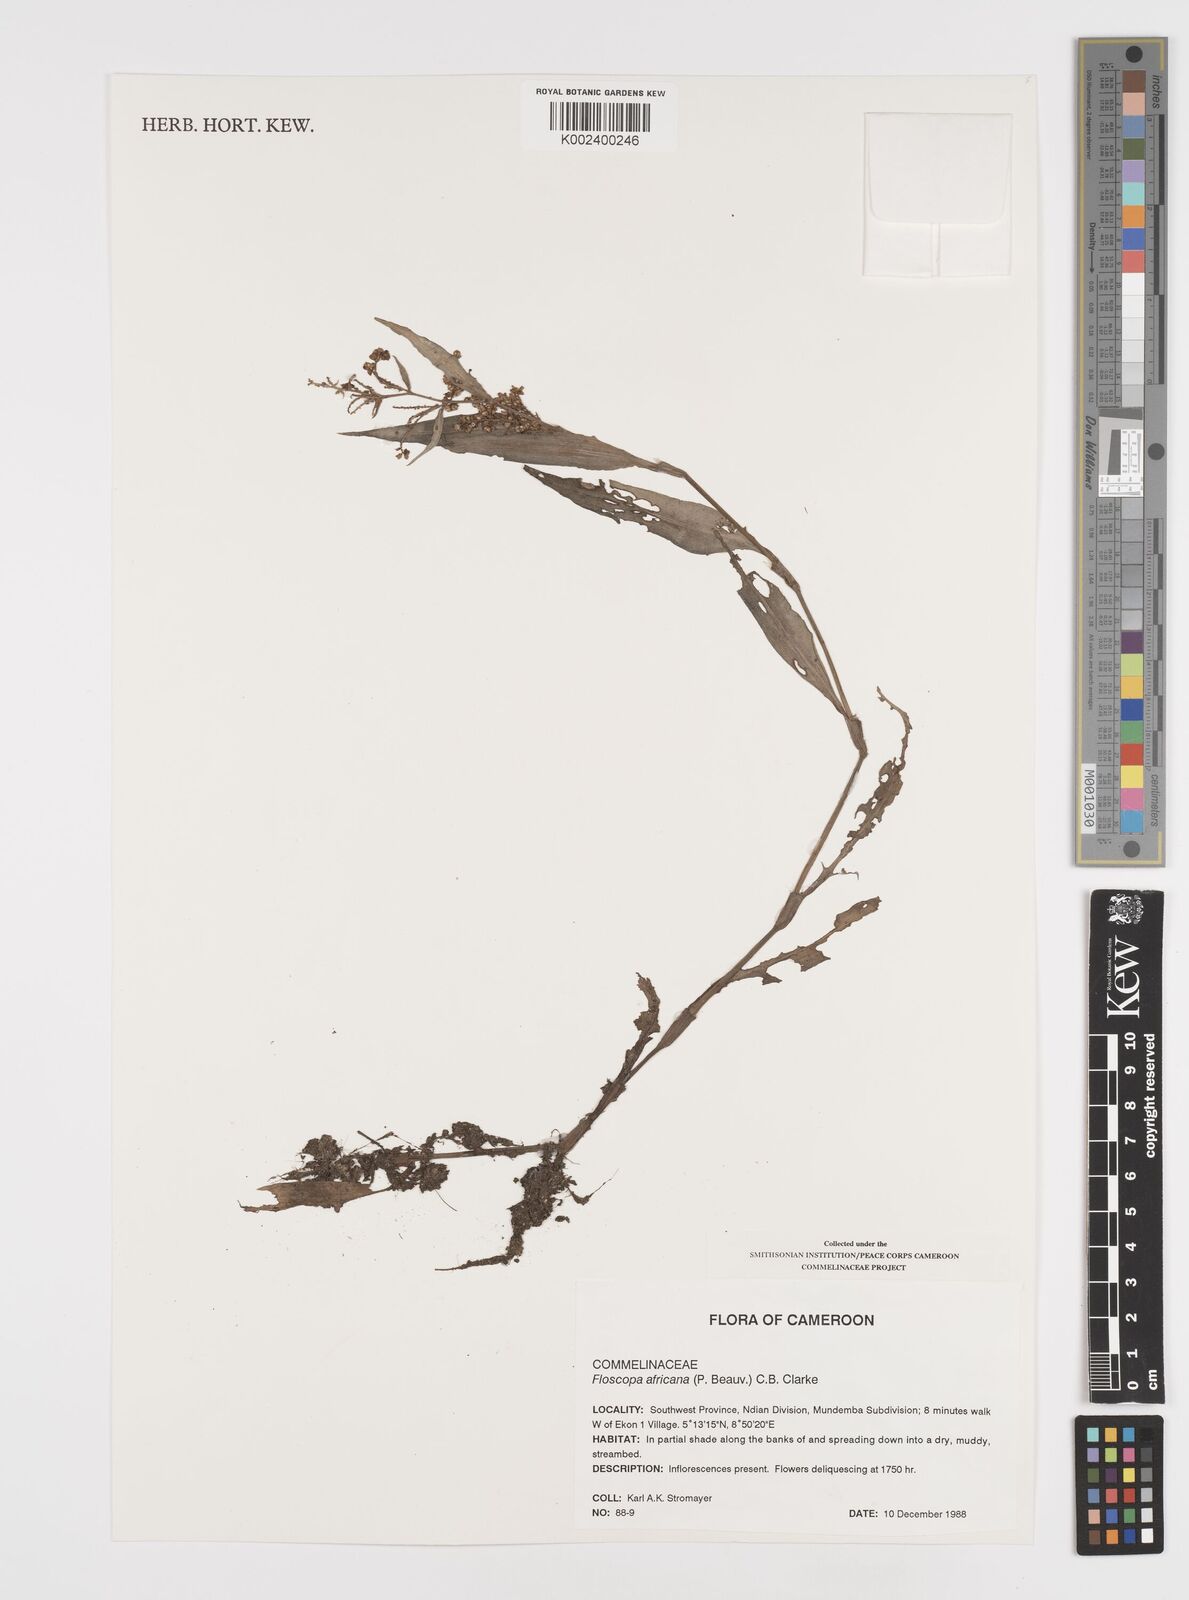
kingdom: Plantae
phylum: Tracheophyta
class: Liliopsida
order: Commelinales
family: Commelinaceae
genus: Floscopa
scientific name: Floscopa africana
